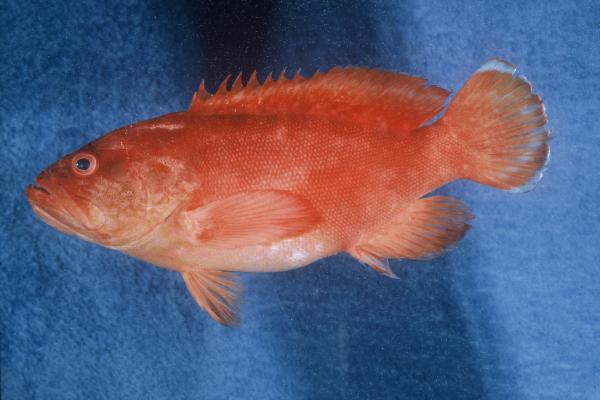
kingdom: Animalia
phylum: Chordata
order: Perciformes
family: Serranidae
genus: Cephalopholis
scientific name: Cephalopholis spiloparaea
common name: Strawberry grouper
